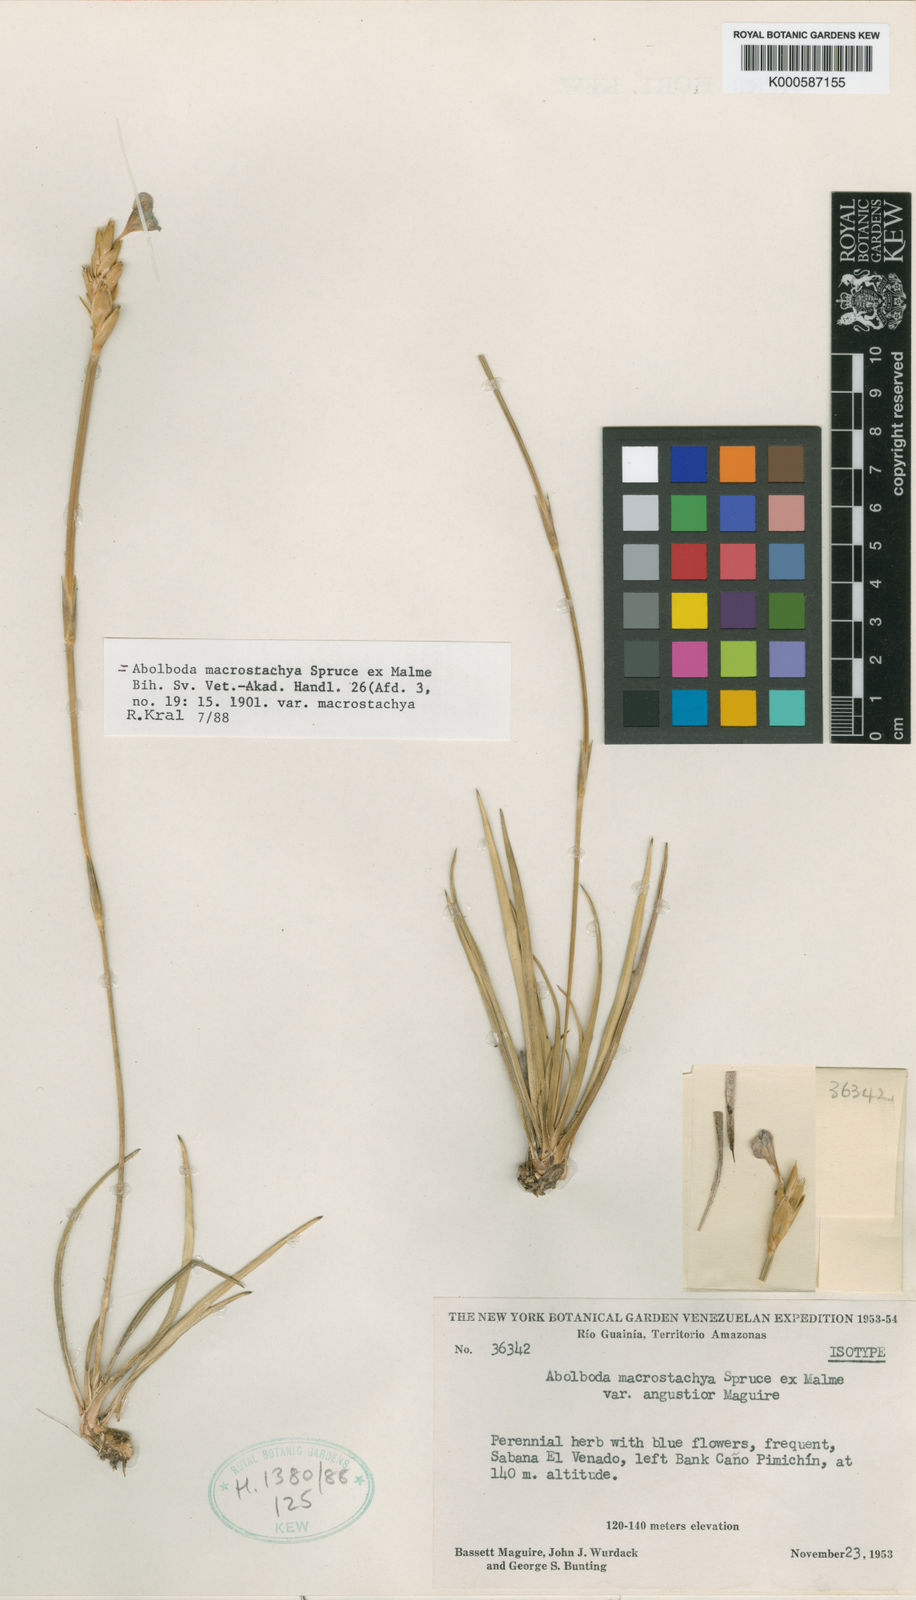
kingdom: Plantae
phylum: Tracheophyta
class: Liliopsida
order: Poales
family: Xyridaceae
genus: Abolboda
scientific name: Abolboda macrostachya
